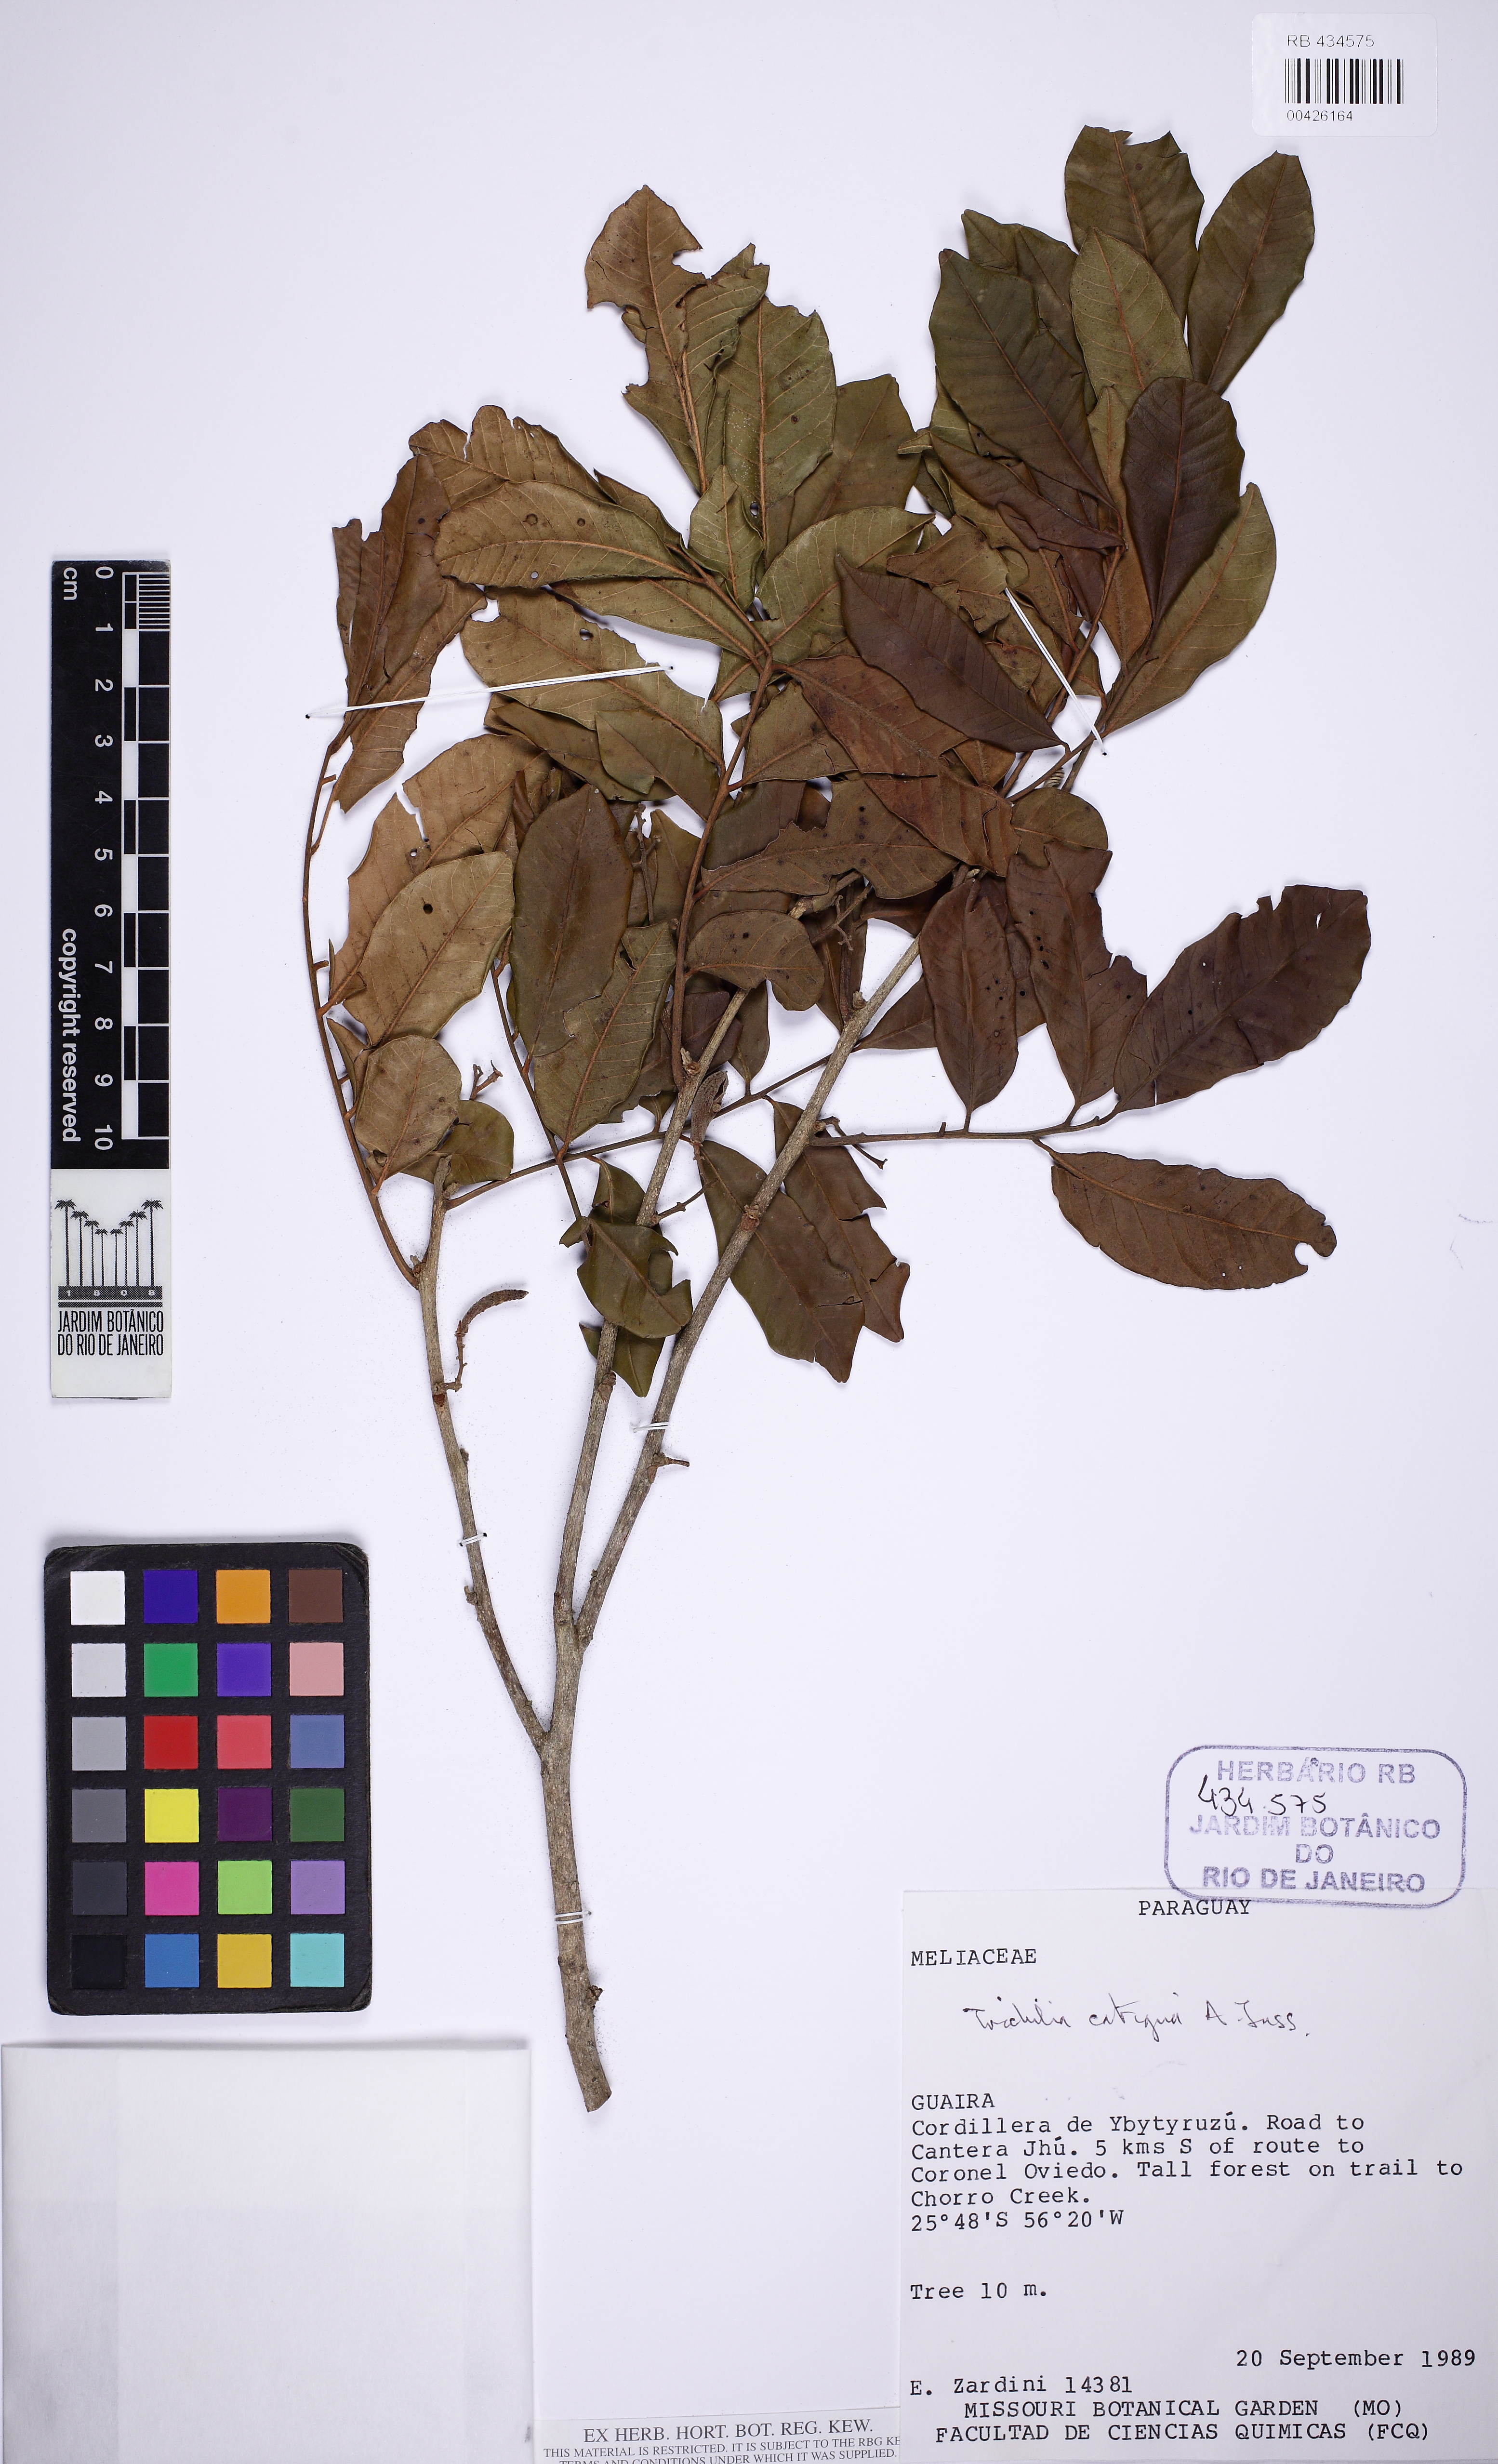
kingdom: Plantae
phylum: Tracheophyta
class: Magnoliopsida
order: Sapindales
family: Meliaceae
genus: Trichilia
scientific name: Trichilia catigua
